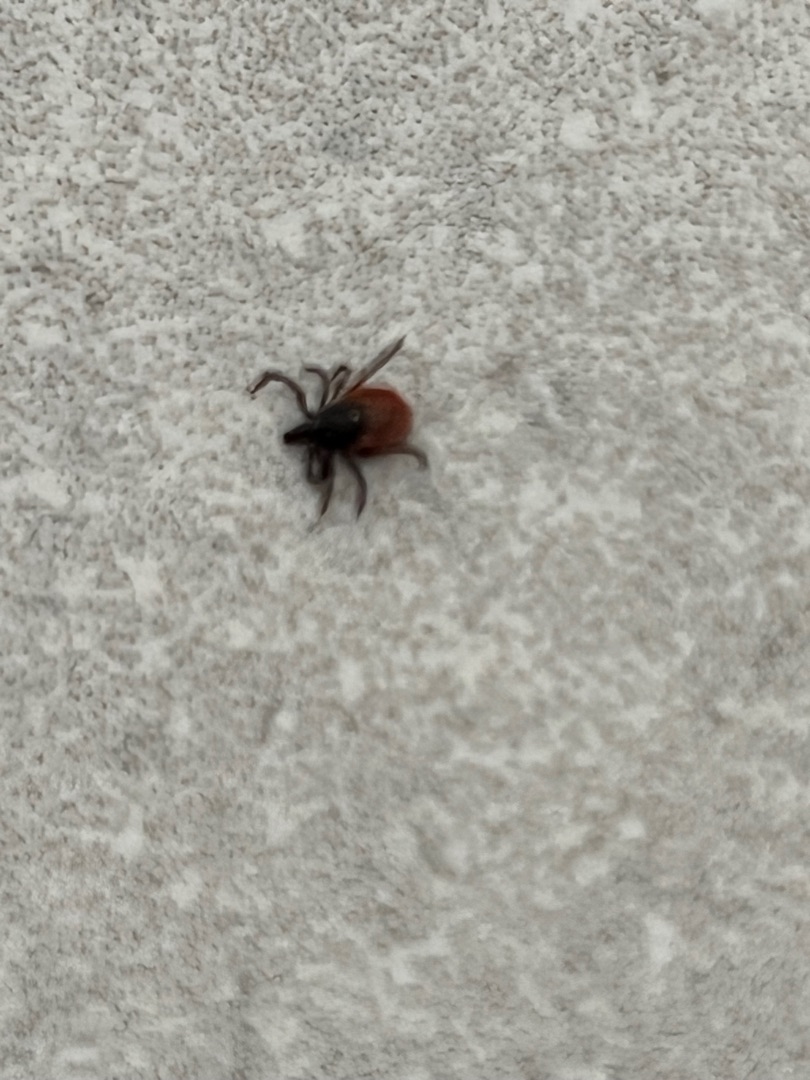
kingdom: Animalia
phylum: Arthropoda
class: Arachnida
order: Ixodida
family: Ixodidae
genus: Ixodes
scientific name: Ixodes ricinus
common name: Skovflåt
